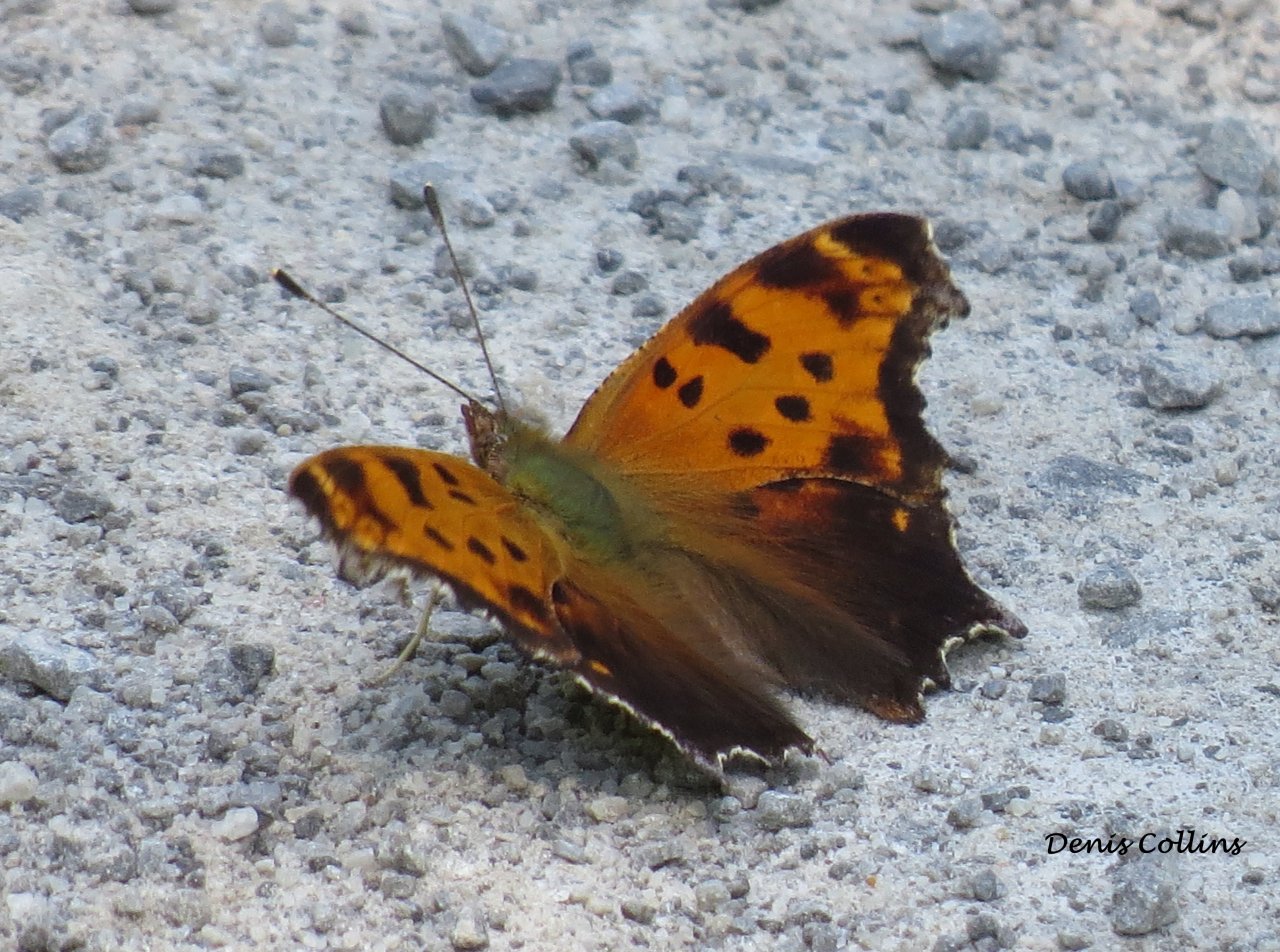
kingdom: Animalia
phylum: Arthropoda
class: Insecta
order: Lepidoptera
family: Nymphalidae
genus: Polygonia
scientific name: Polygonia comma
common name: Eastern Comma
